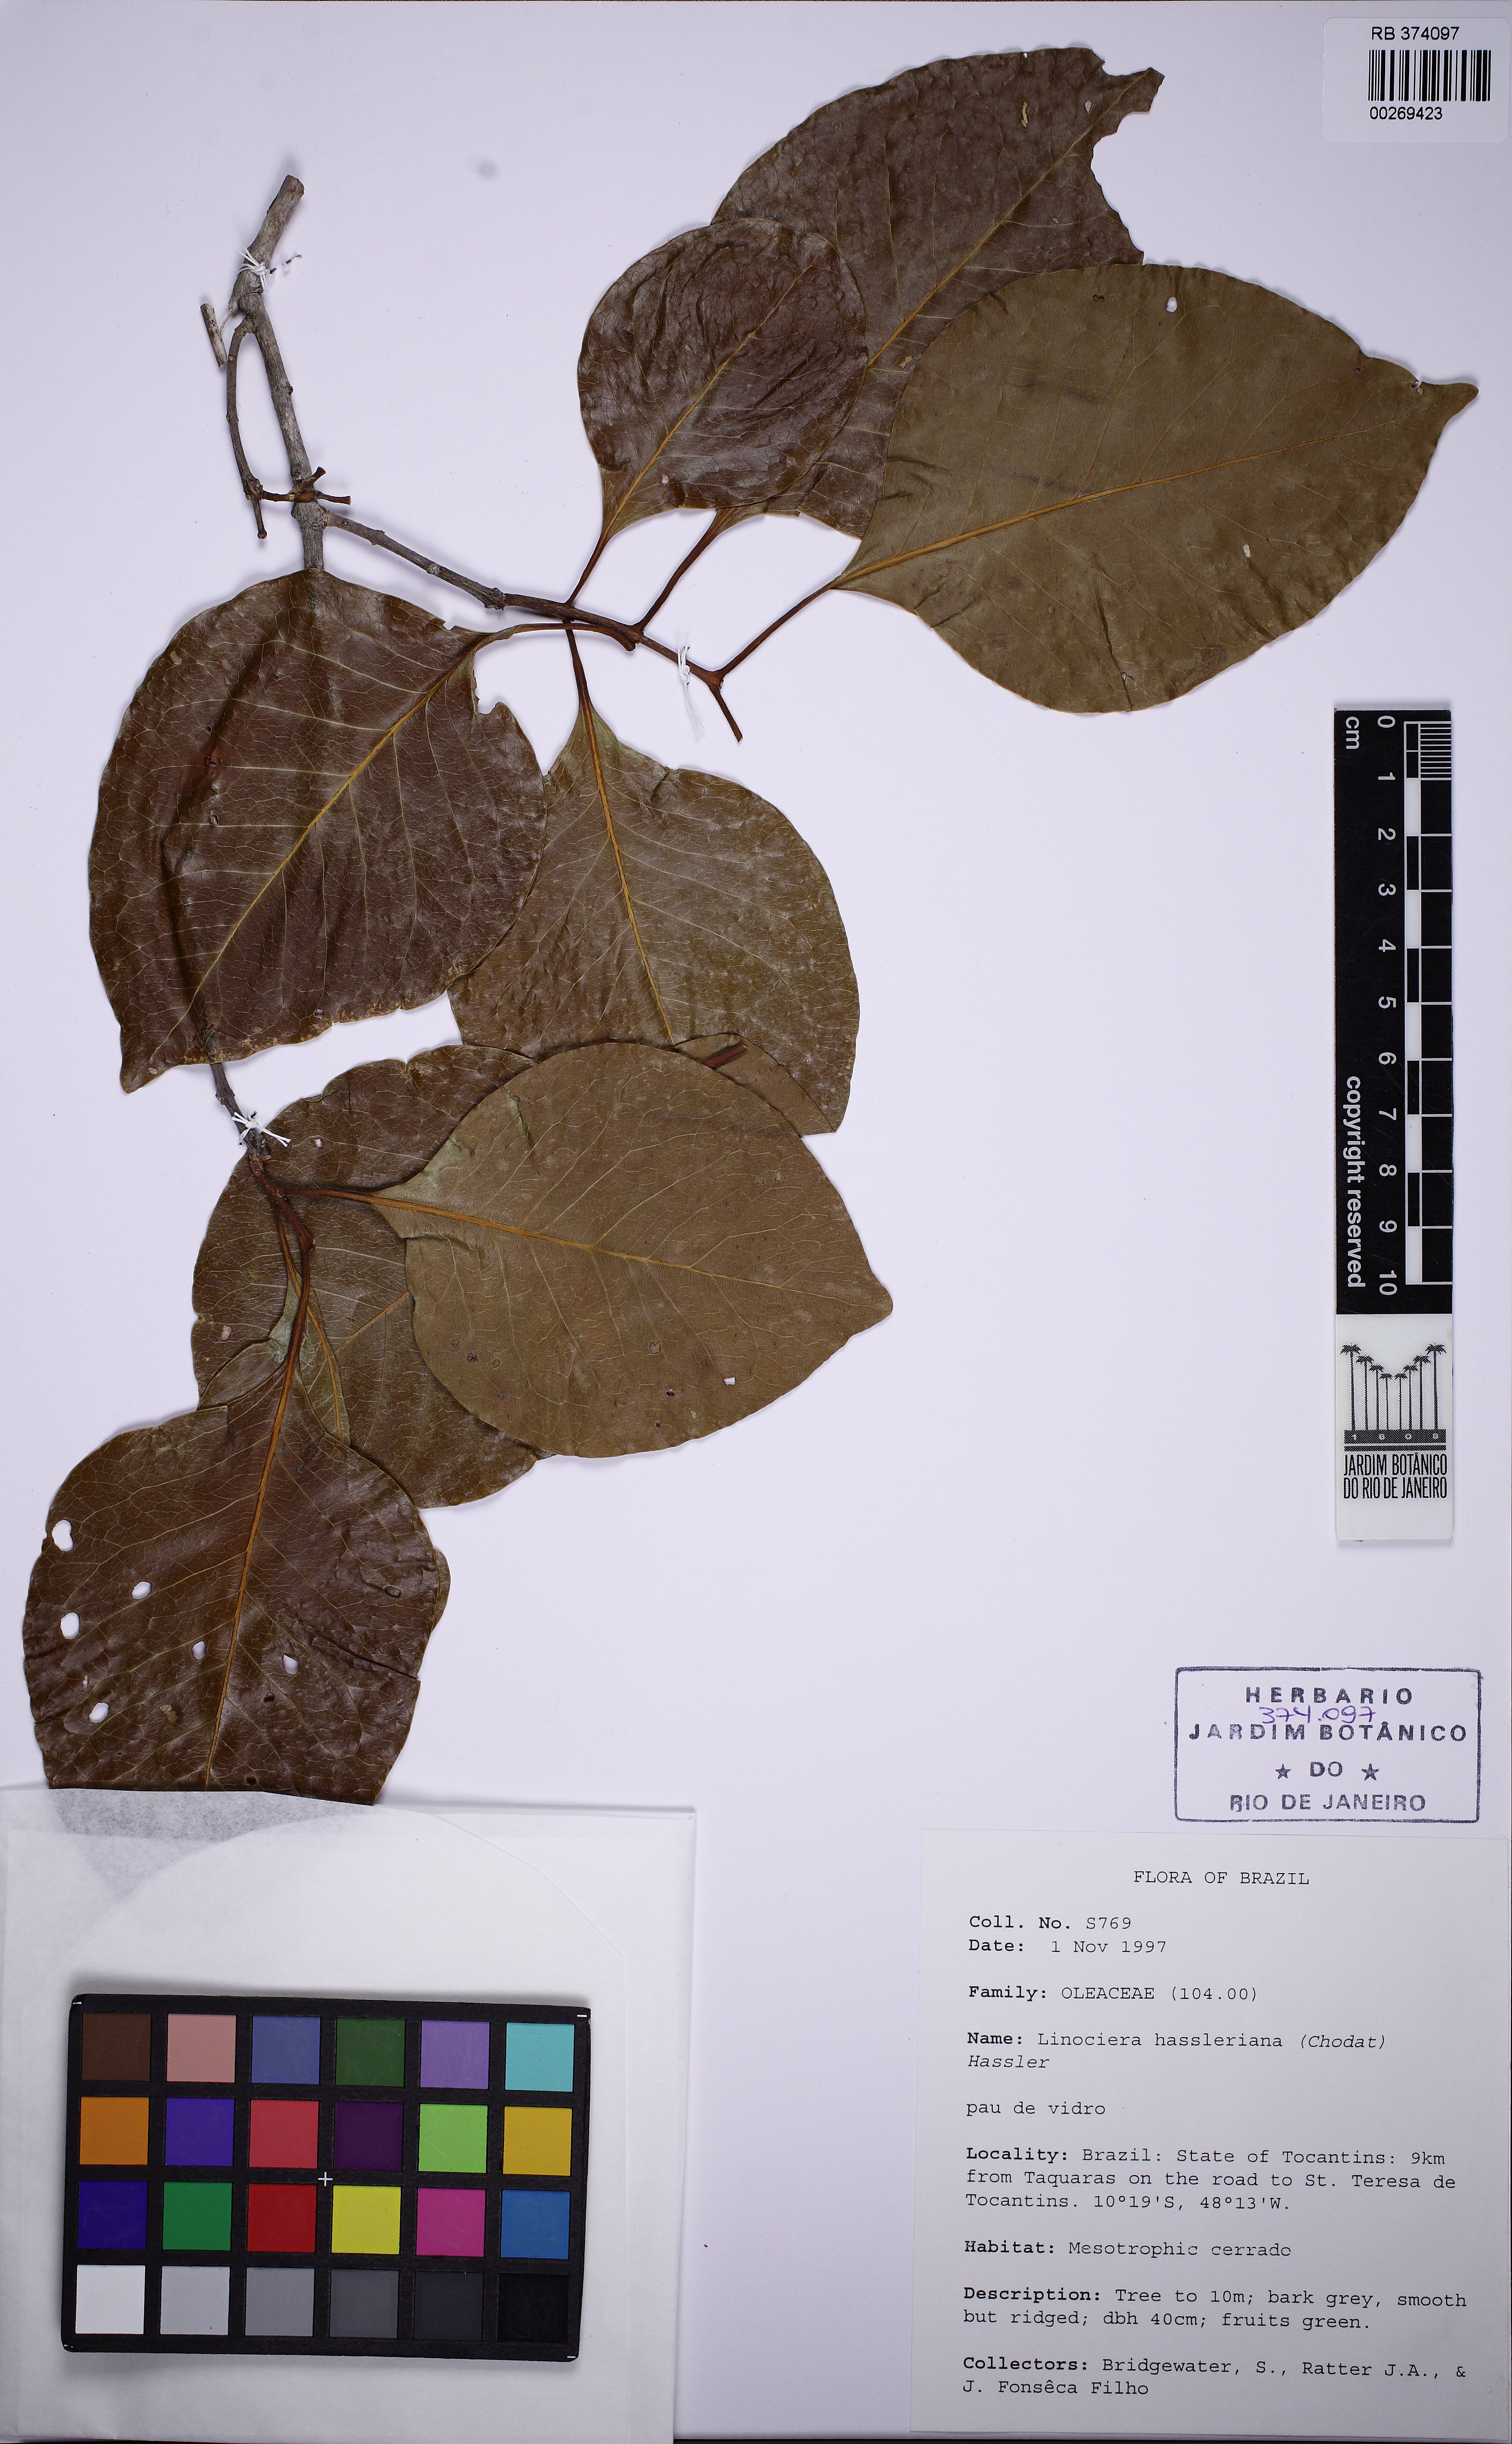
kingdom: Plantae
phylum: Tracheophyta
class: Magnoliopsida
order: Lamiales
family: Oleaceae
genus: Priogymnanthus
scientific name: Priogymnanthus hasslerianus
